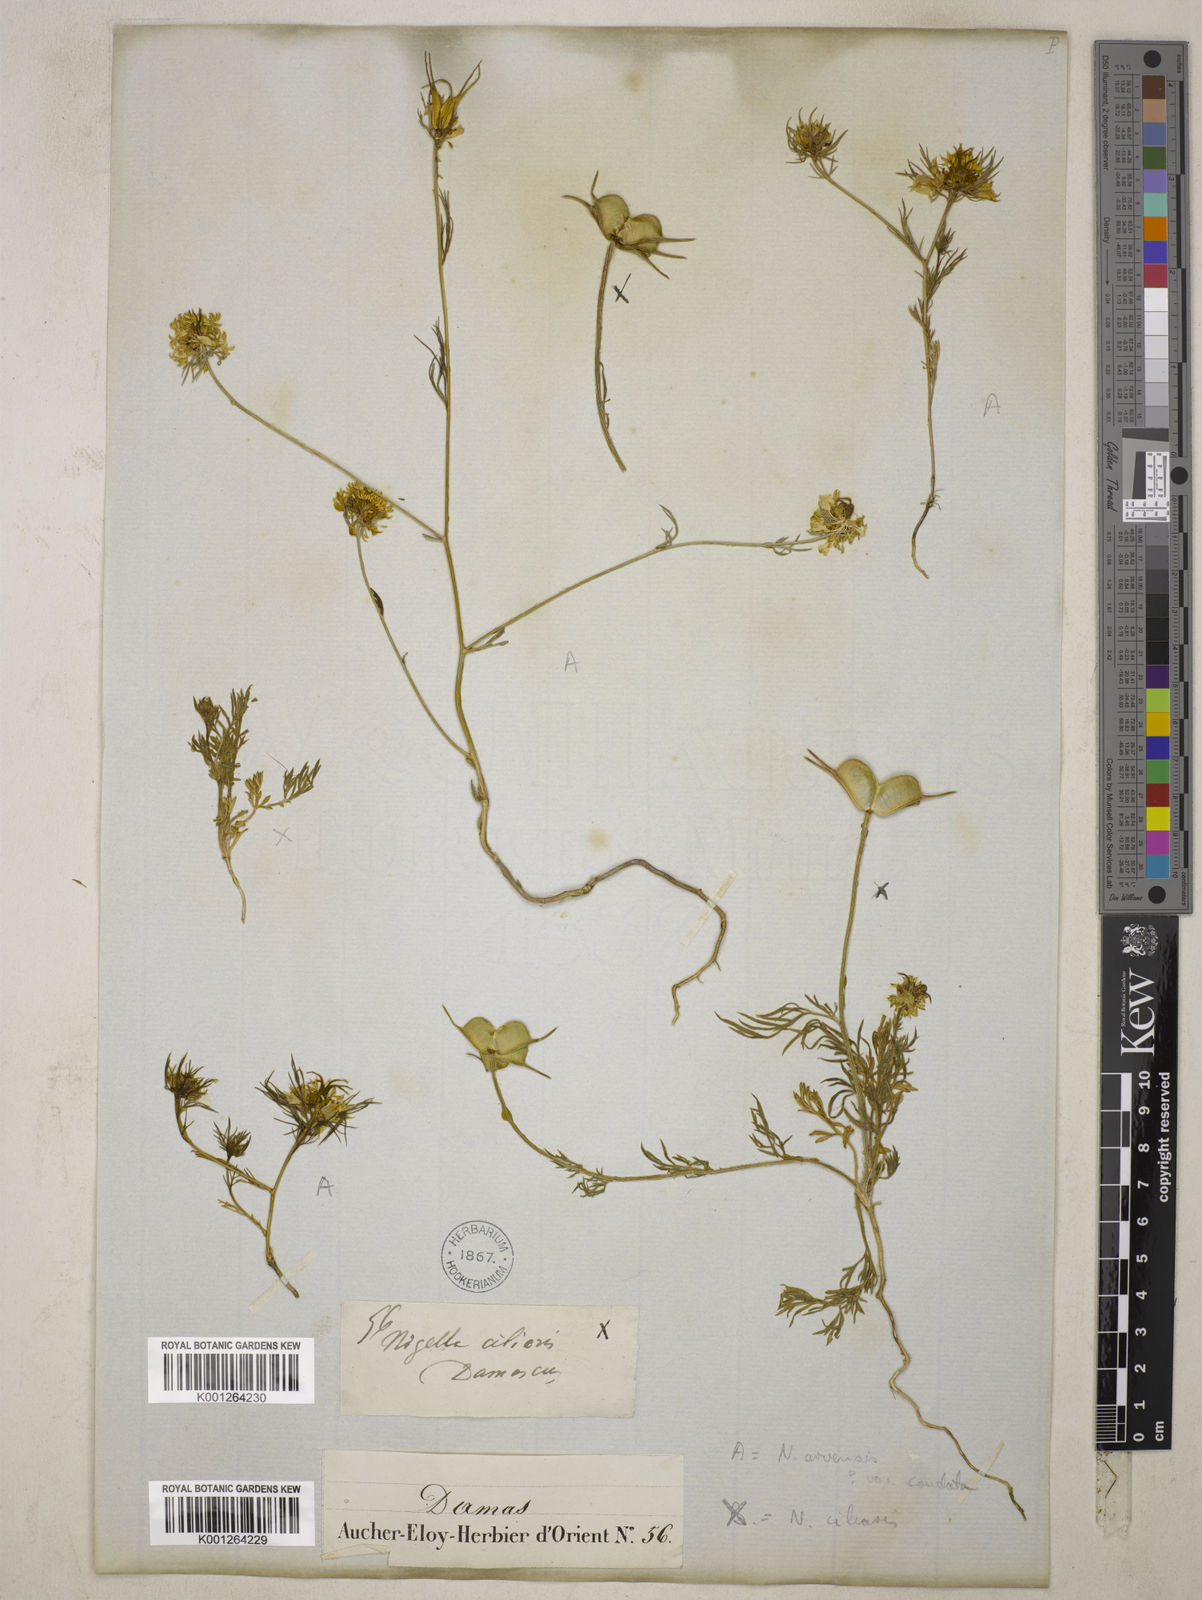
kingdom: Plantae
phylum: Tracheophyta
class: Magnoliopsida
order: Ranunculales
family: Ranunculaceae
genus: Nigella
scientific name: Nigella ciliaris
